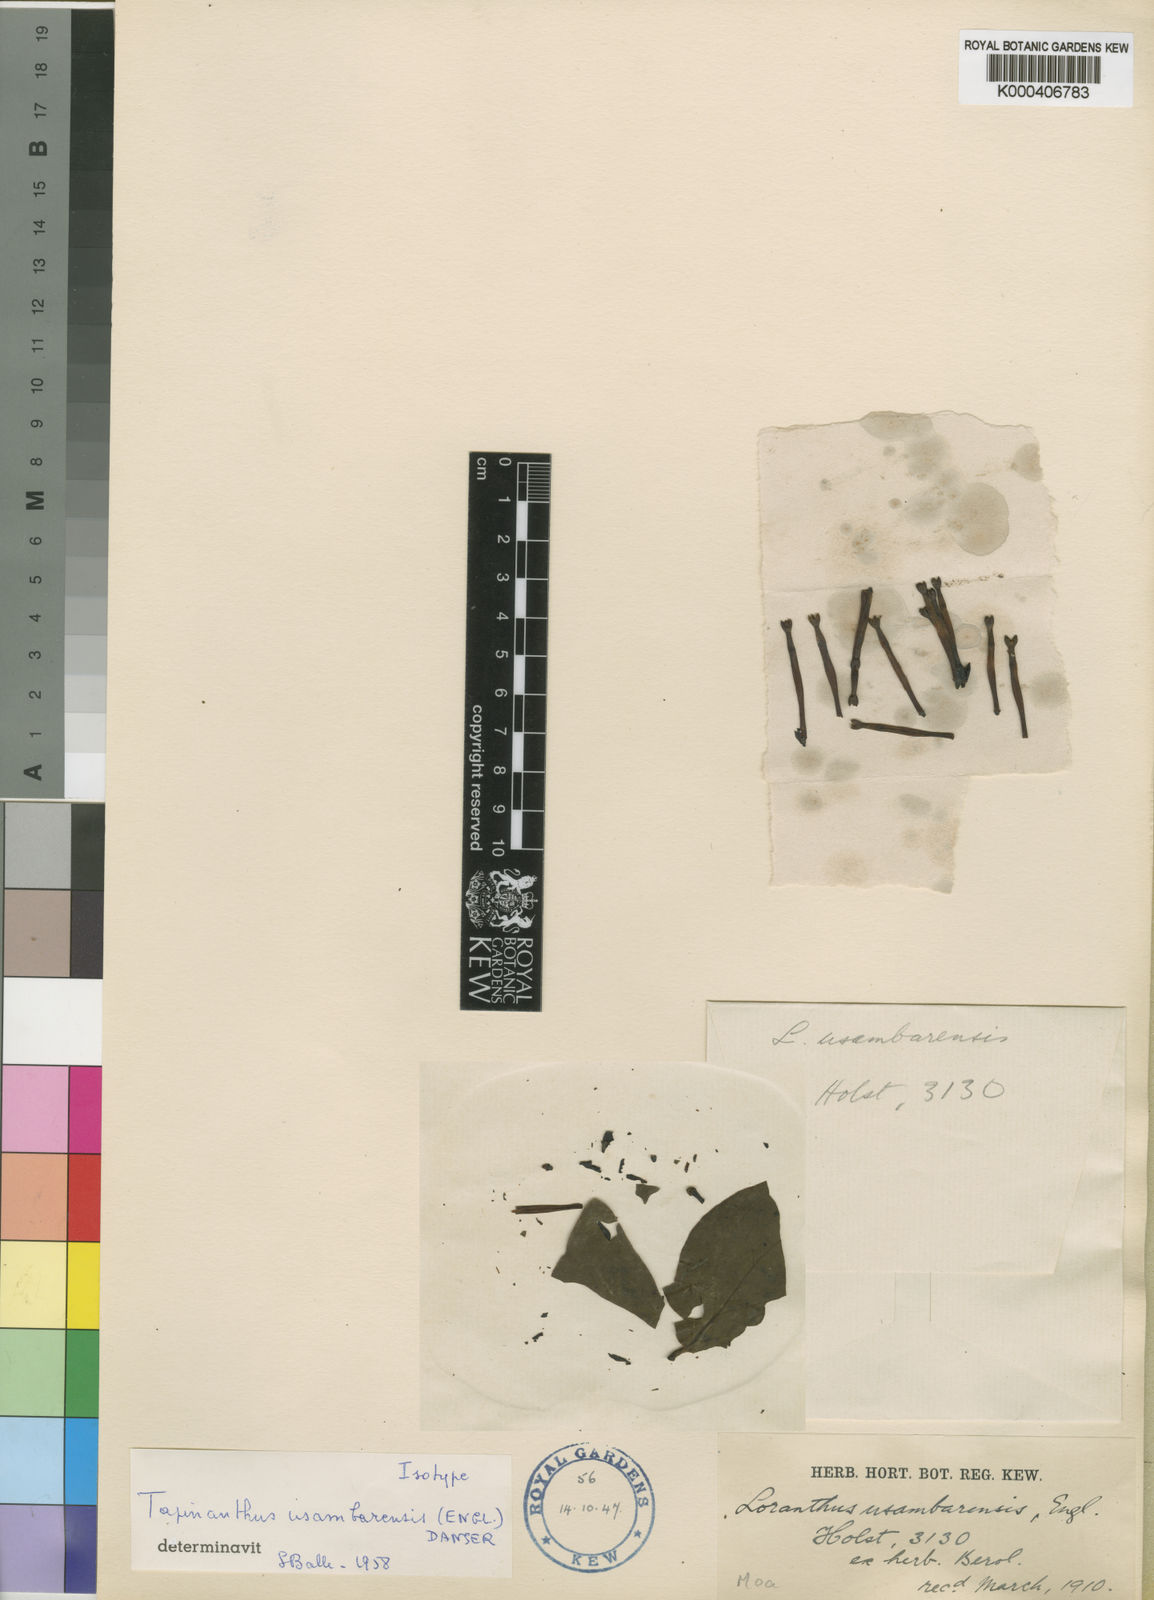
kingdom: Plantae
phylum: Tracheophyta
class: Magnoliopsida
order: Santalales
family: Loranthaceae
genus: Agelanthus
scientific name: Agelanthus subulatus
